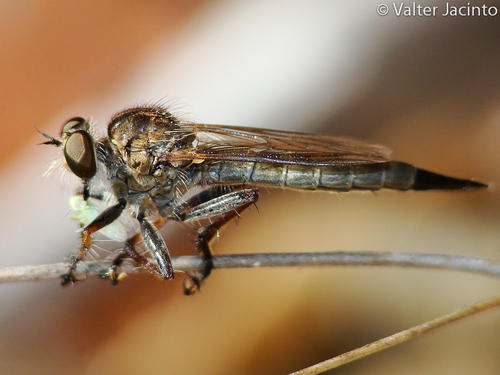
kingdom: Animalia
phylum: Arthropoda
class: Insecta
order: Diptera
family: Asilidae
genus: Cerdistus
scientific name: Cerdistus
